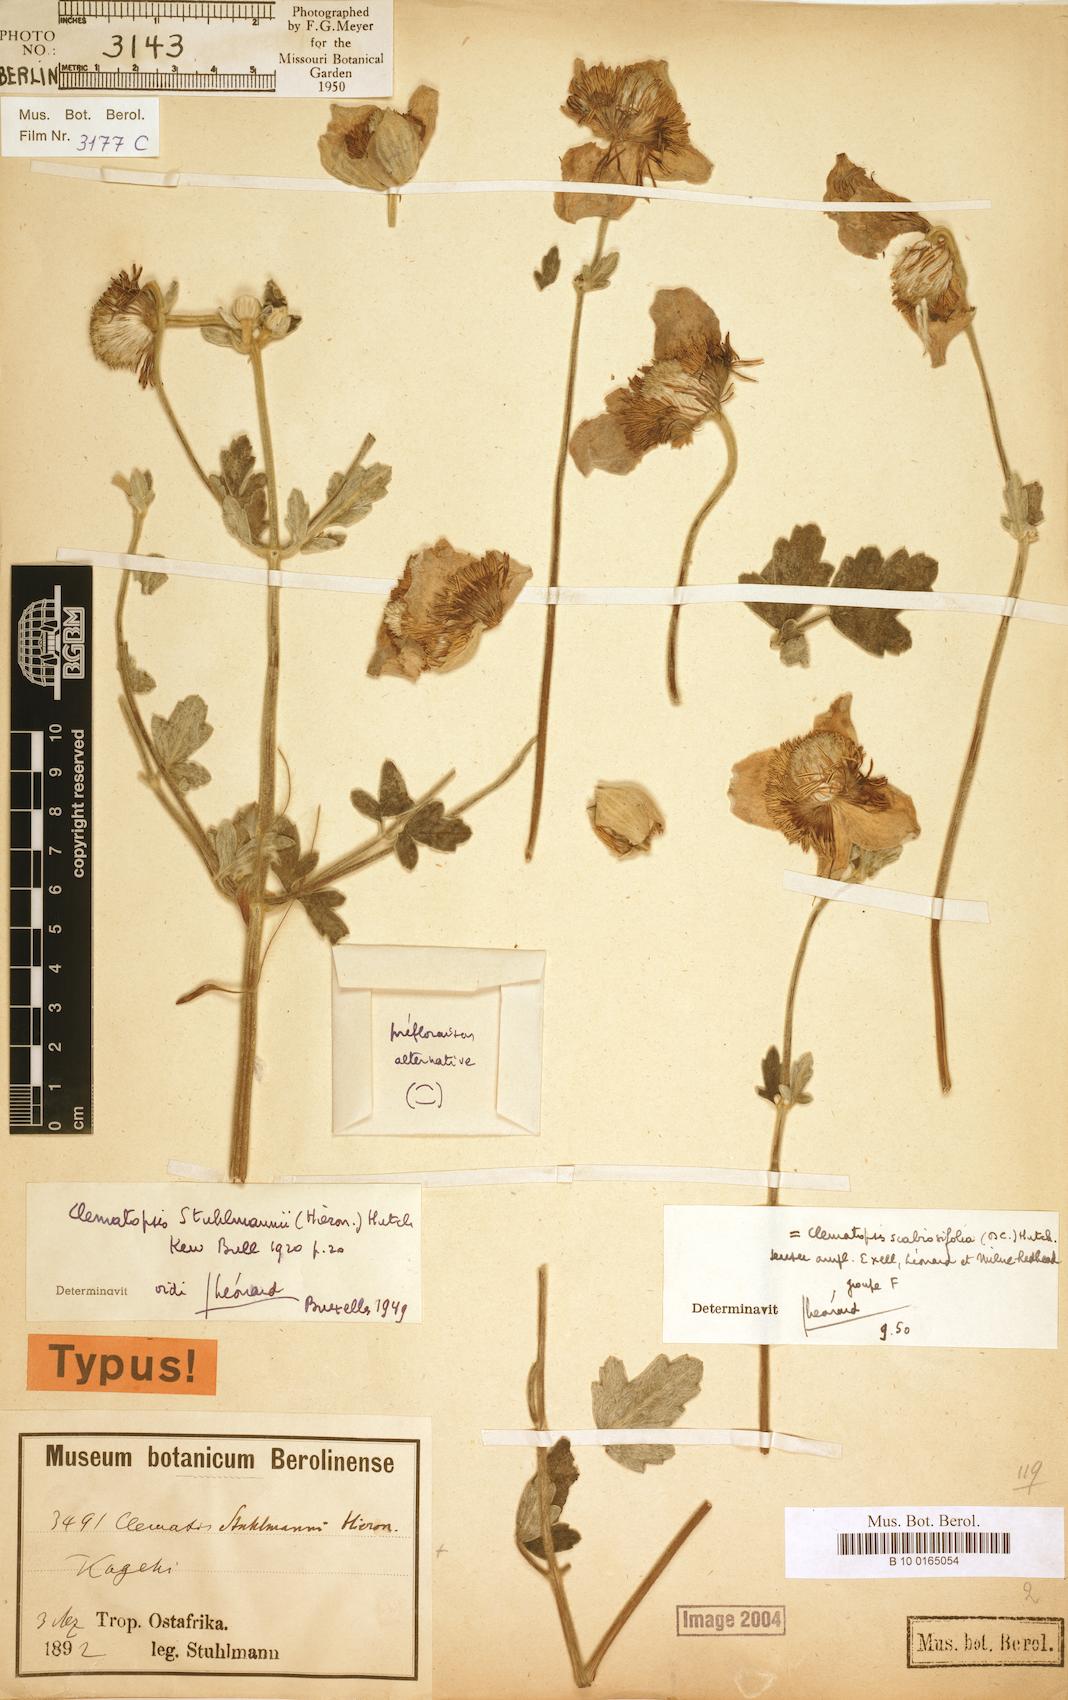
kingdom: Plantae
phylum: Tracheophyta
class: Magnoliopsida
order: Ranunculales
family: Ranunculaceae
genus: Clematis
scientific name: Clematis villosa
